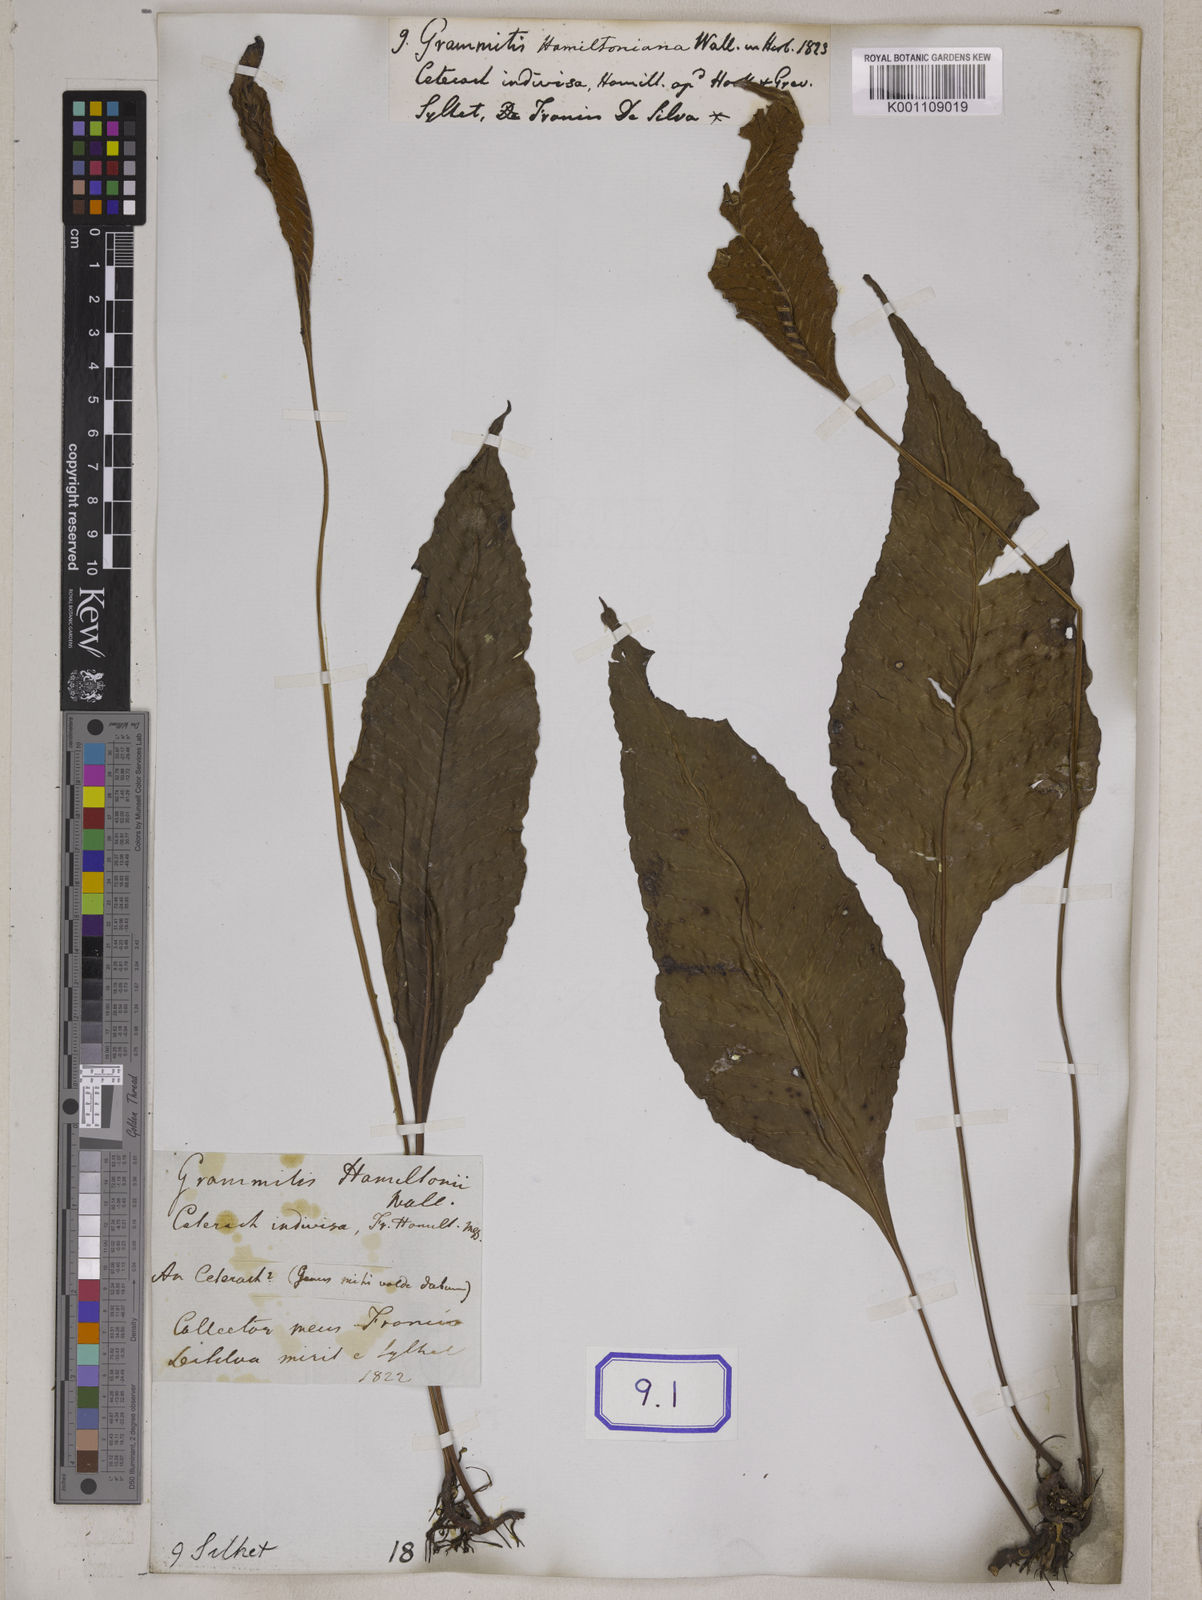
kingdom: Plantae
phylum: Tracheophyta
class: Polypodiopsida
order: Polypodiales
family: Polypodiaceae
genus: Leptochilus
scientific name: Leptochilus pedunculatus
